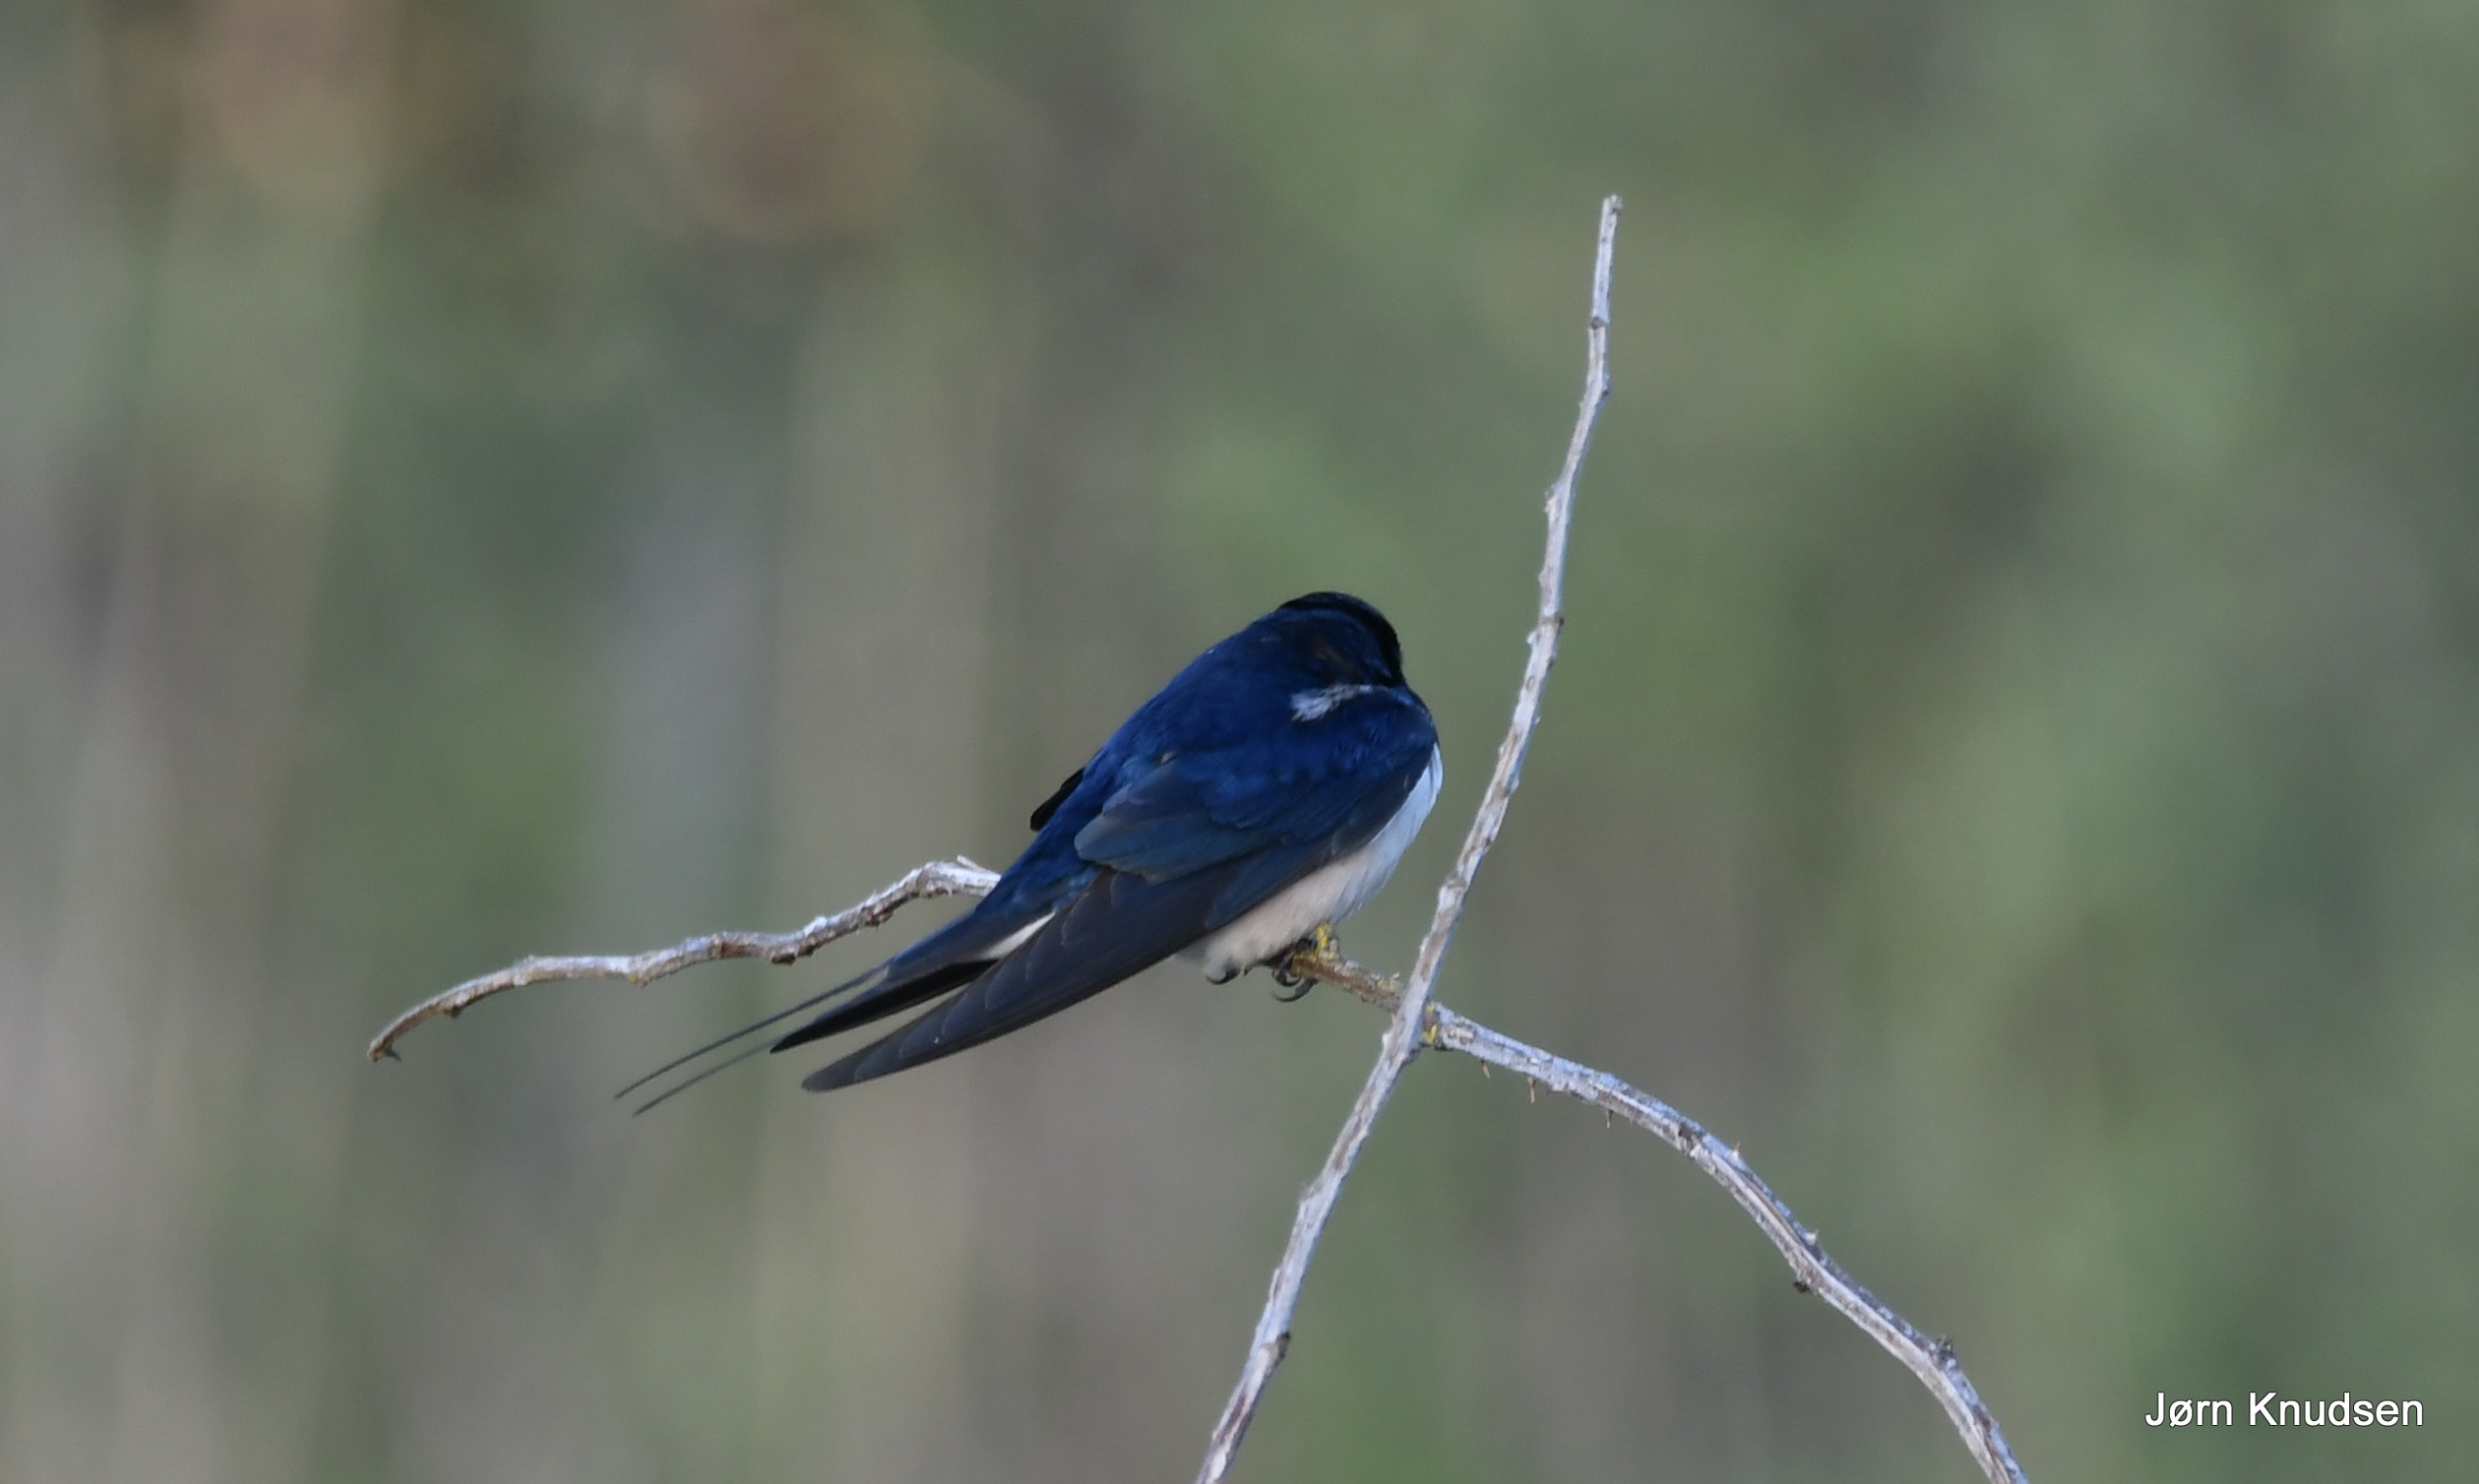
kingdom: Animalia
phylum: Chordata
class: Aves
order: Passeriformes
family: Hirundinidae
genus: Hirundo
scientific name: Hirundo rustica
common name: Landsvale
